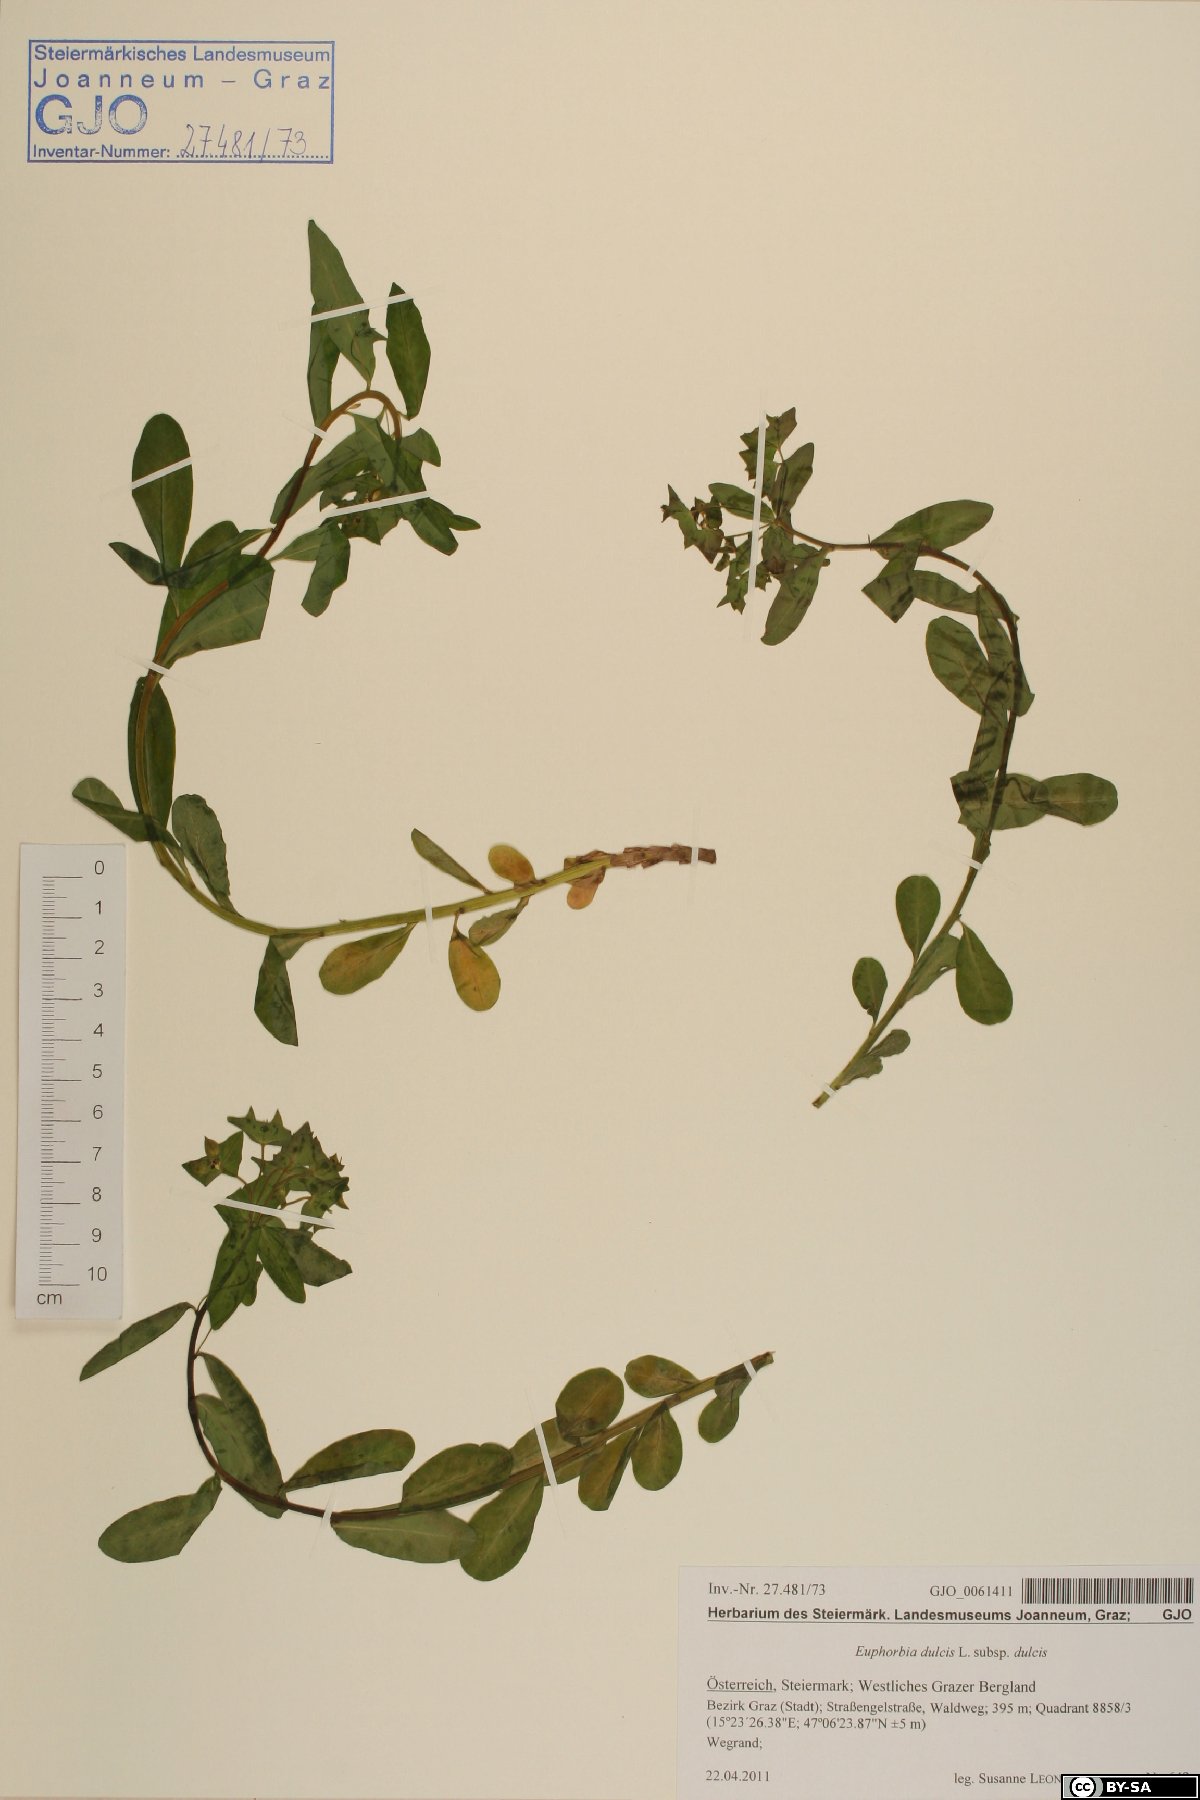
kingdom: Plantae
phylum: Tracheophyta
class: Magnoliopsida
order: Malpighiales
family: Euphorbiaceae
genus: Euphorbia
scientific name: Euphorbia dulcis
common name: Sweet spurge
